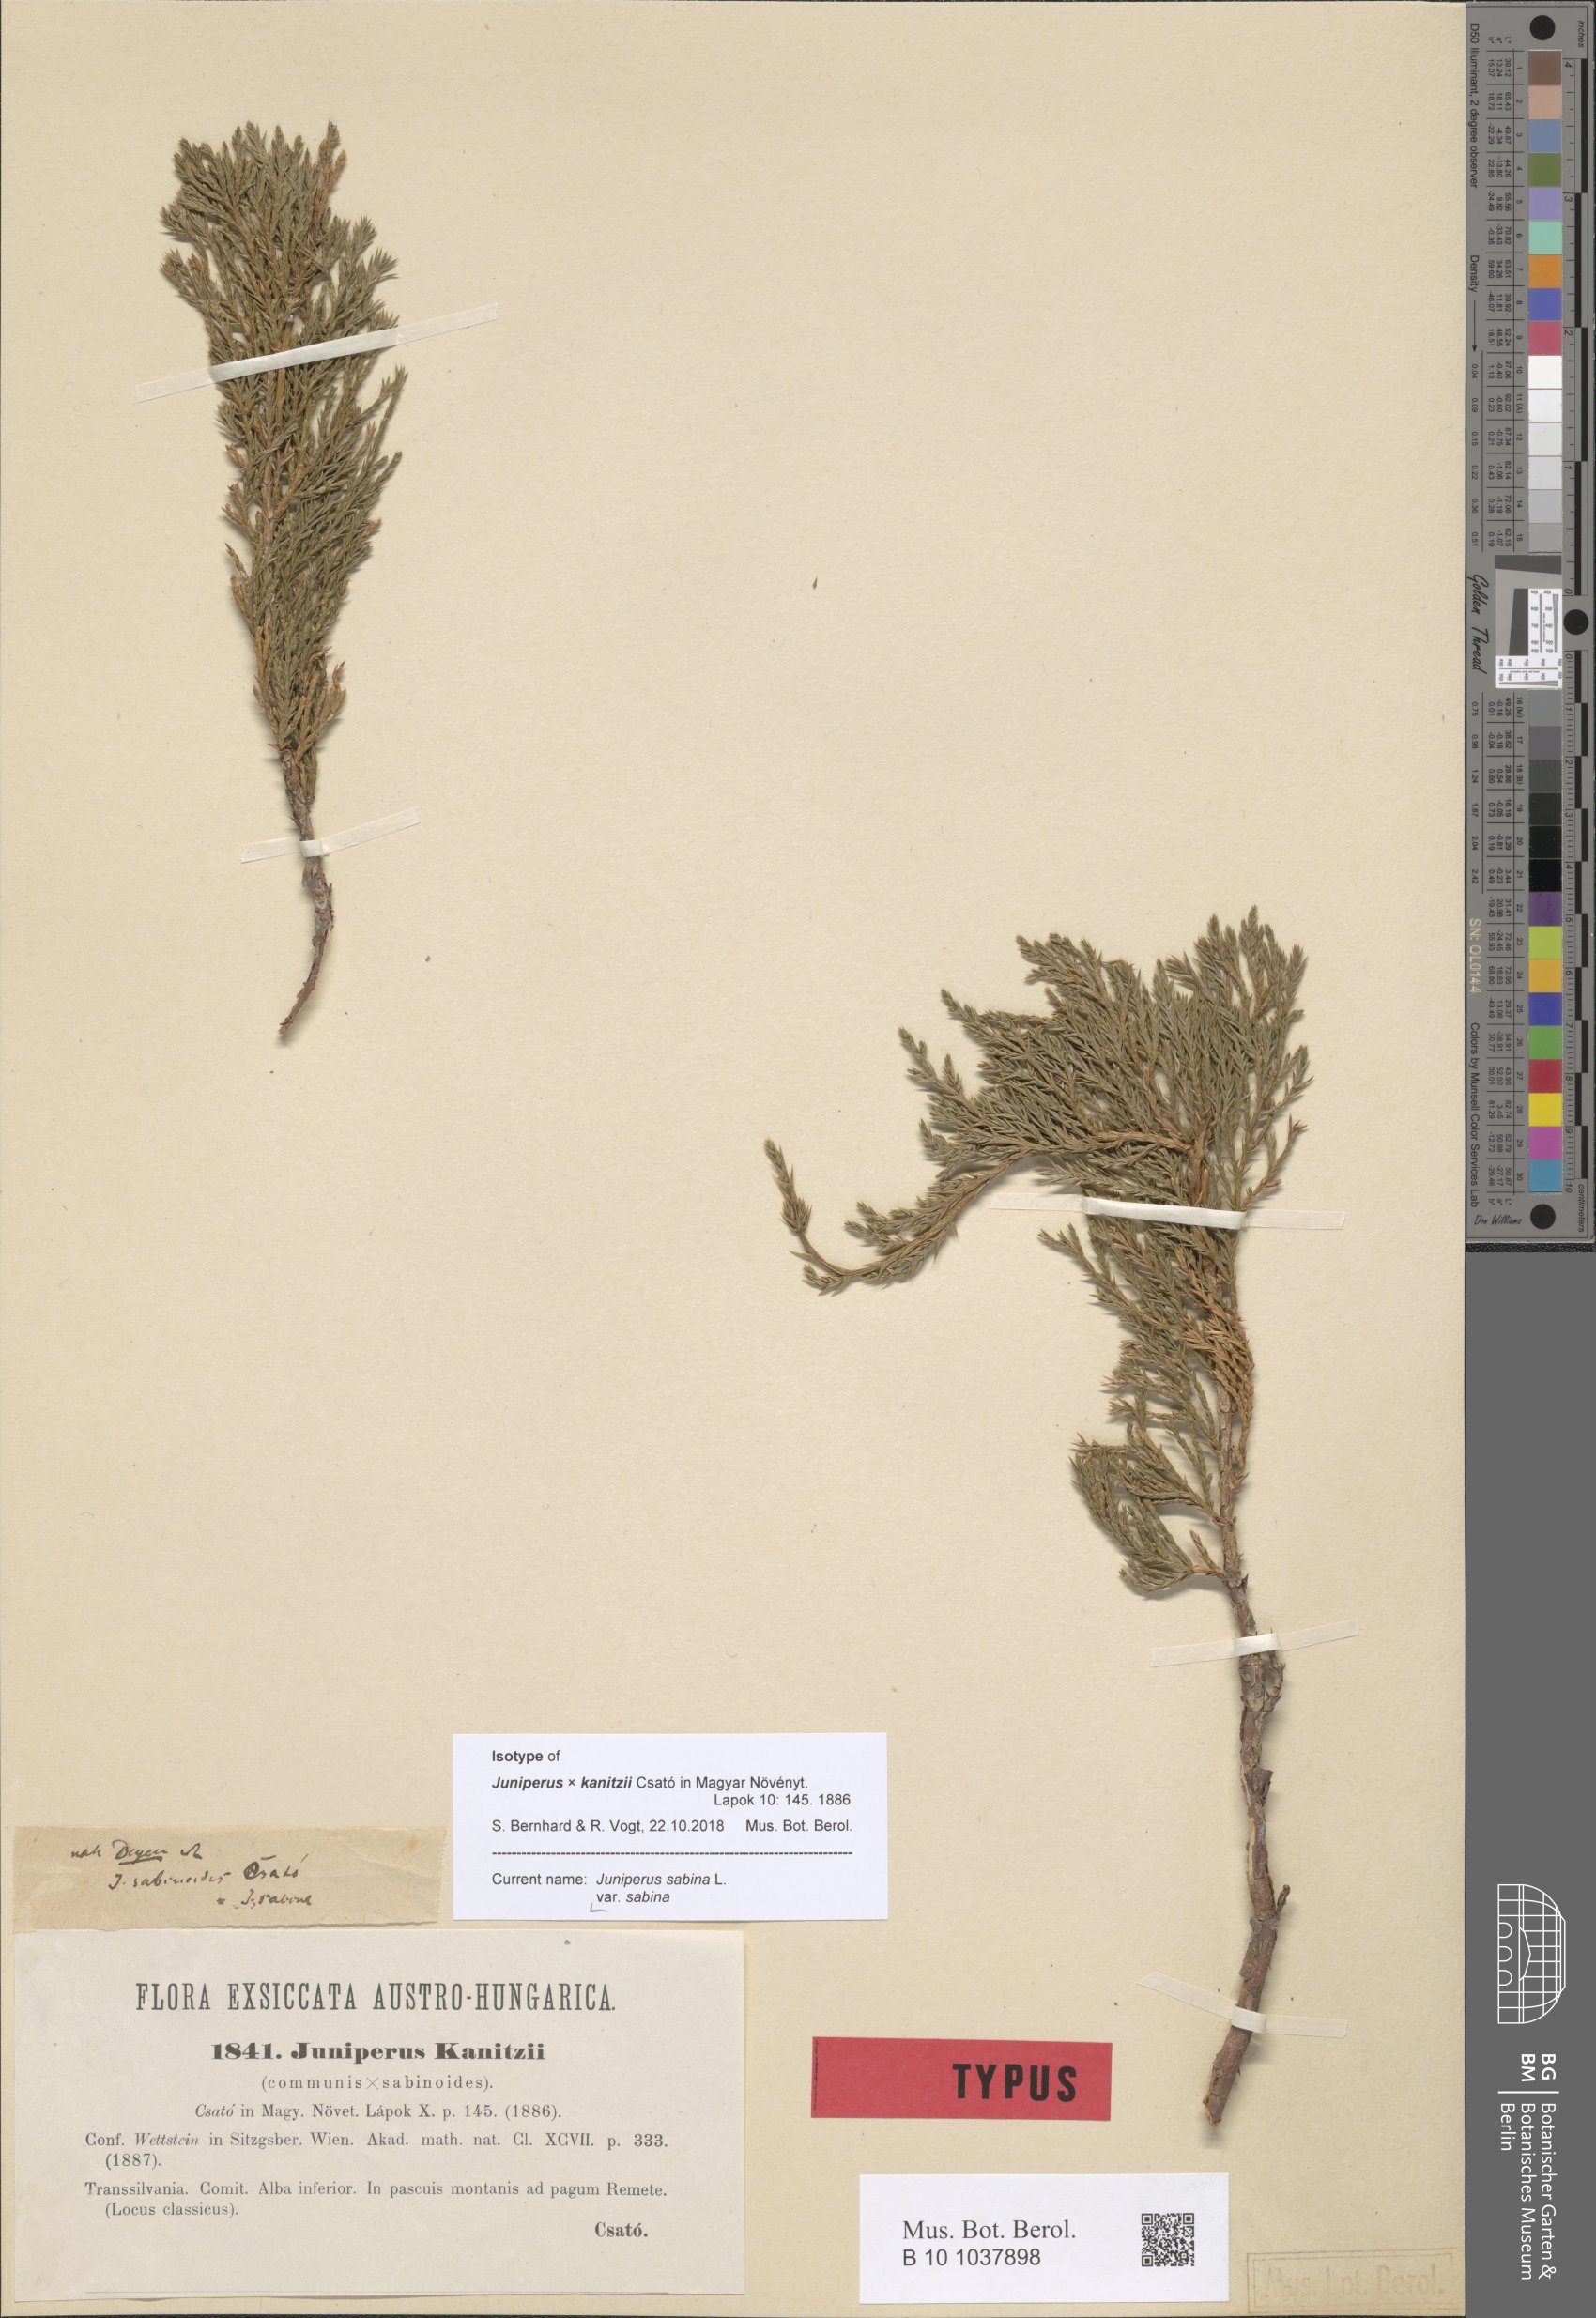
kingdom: Plantae
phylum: Tracheophyta
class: Pinopsida
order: Pinales
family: Cupressaceae
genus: Juniperus
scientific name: Juniperus sabina
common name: Savin
